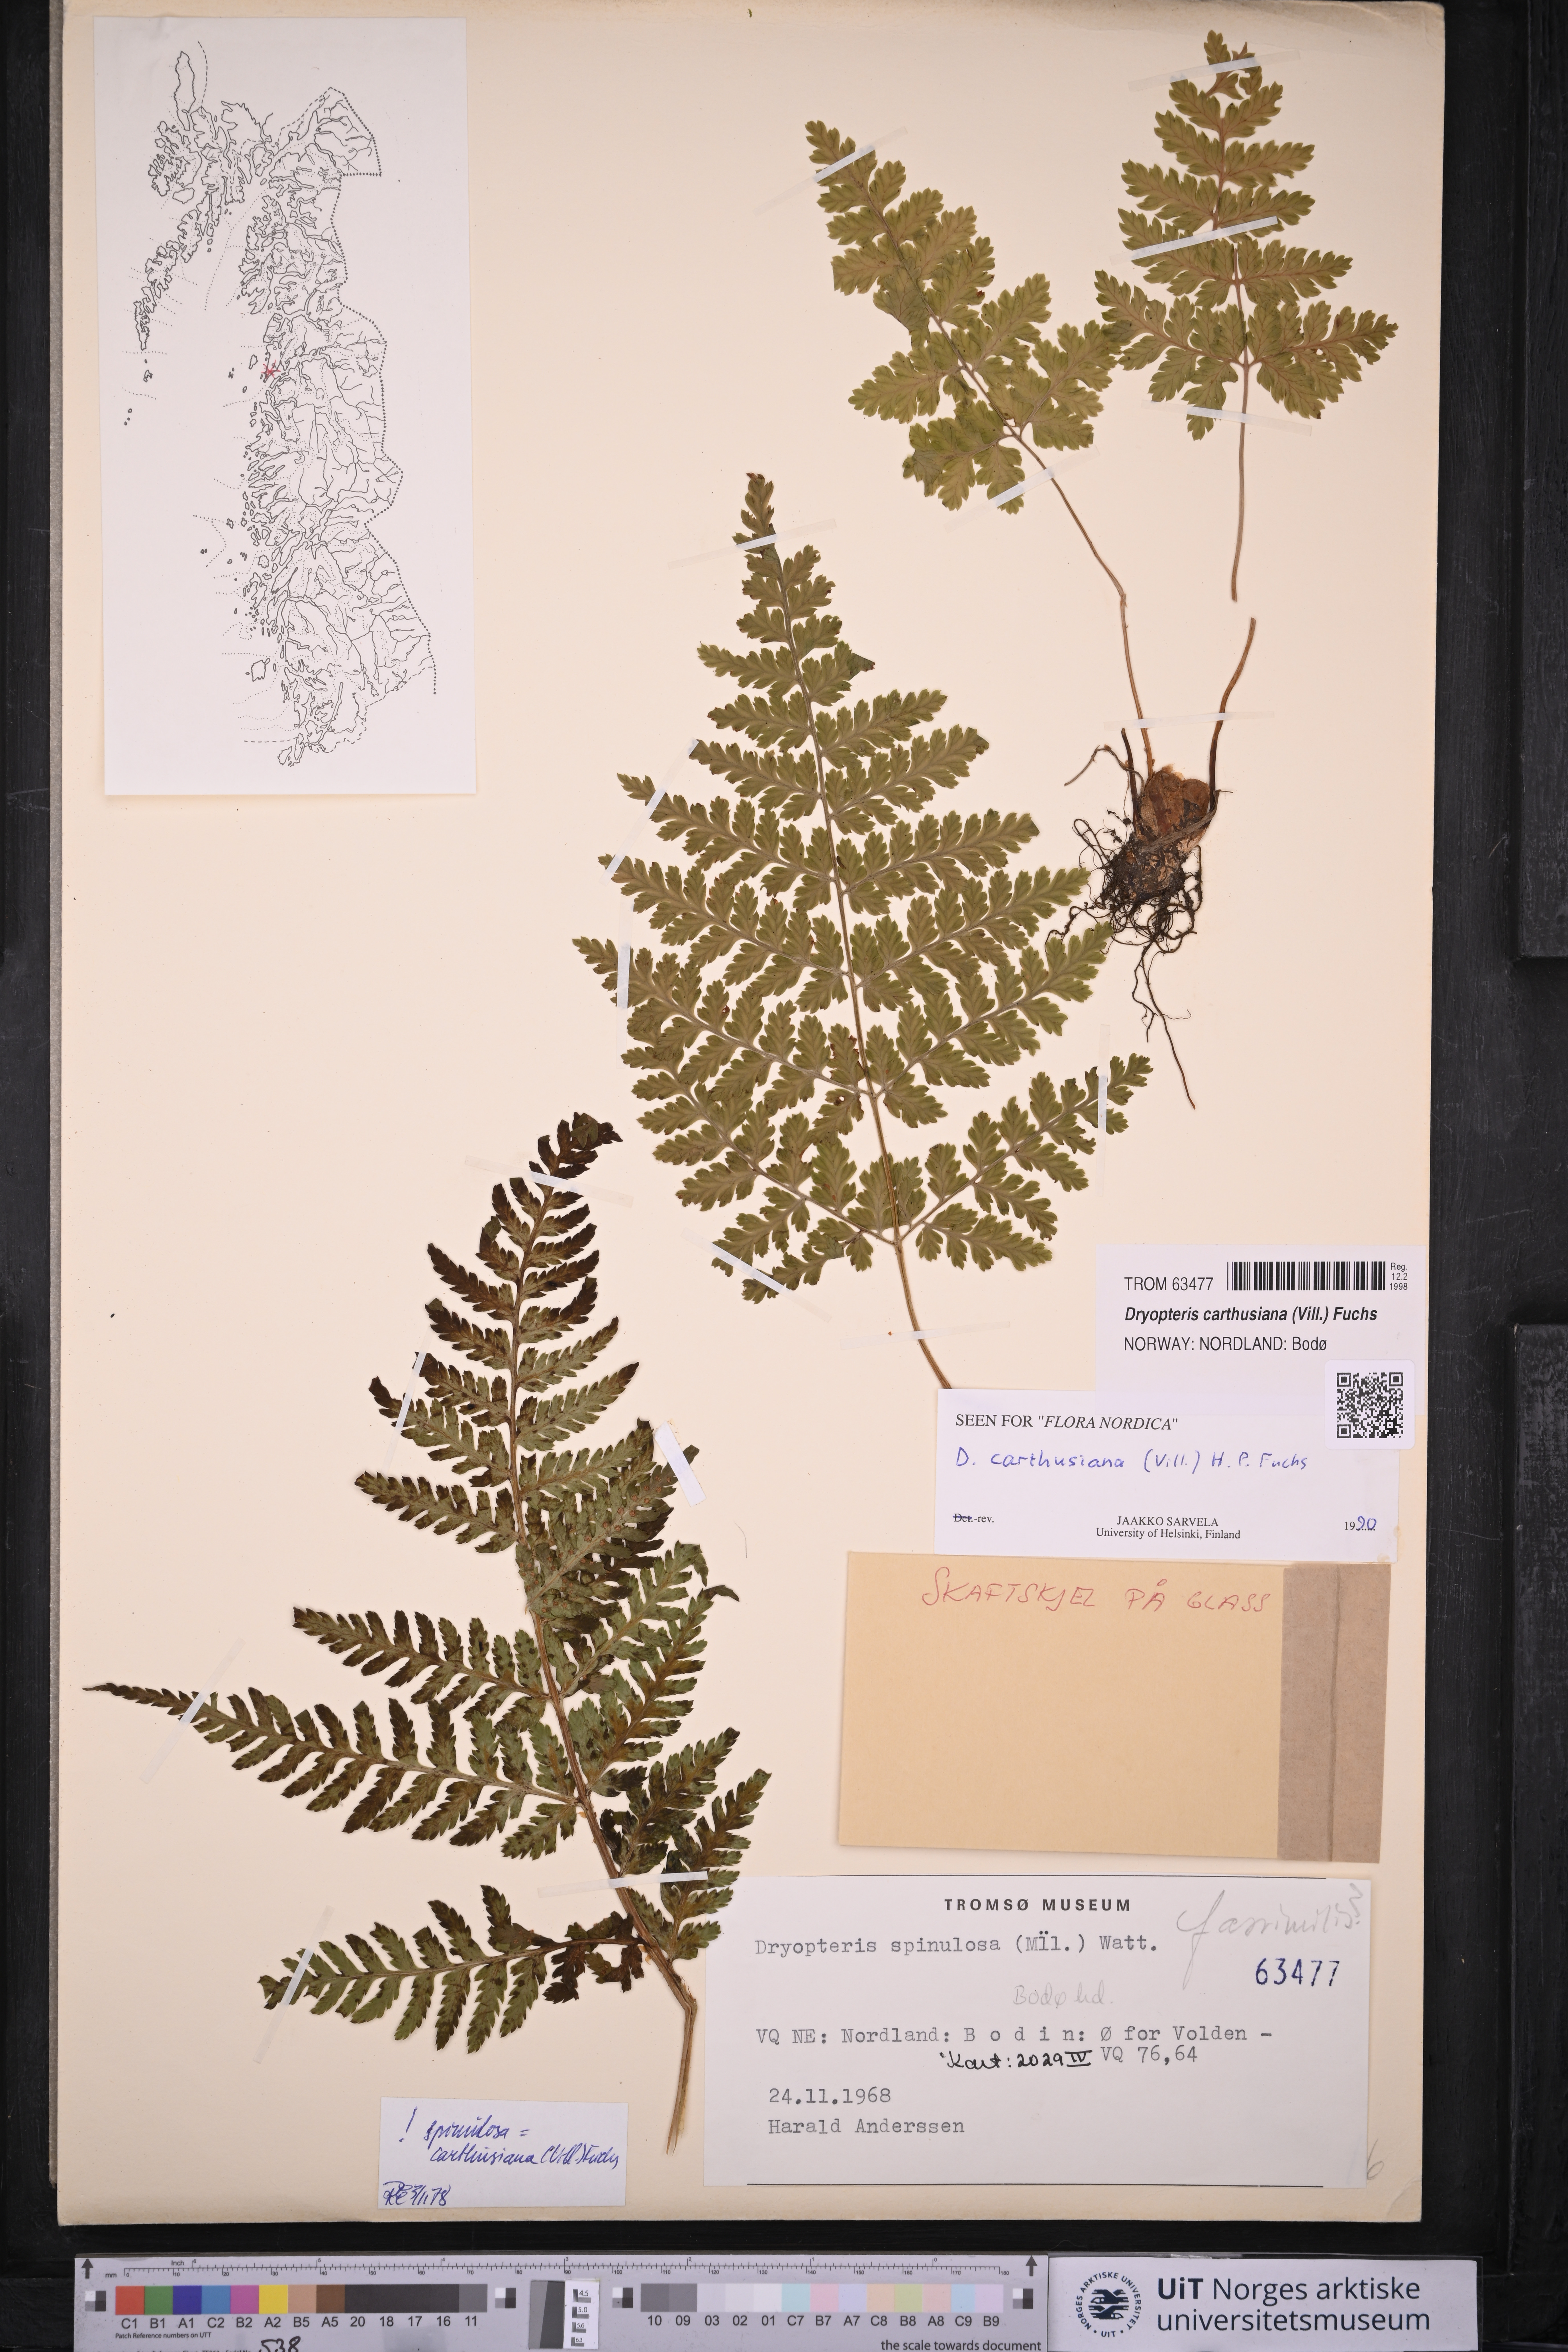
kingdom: Plantae
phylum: Tracheophyta
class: Polypodiopsida
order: Polypodiales
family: Dryopteridaceae
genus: Dryopteris
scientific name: Dryopteris carthusiana
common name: Narrow buckler-fern
